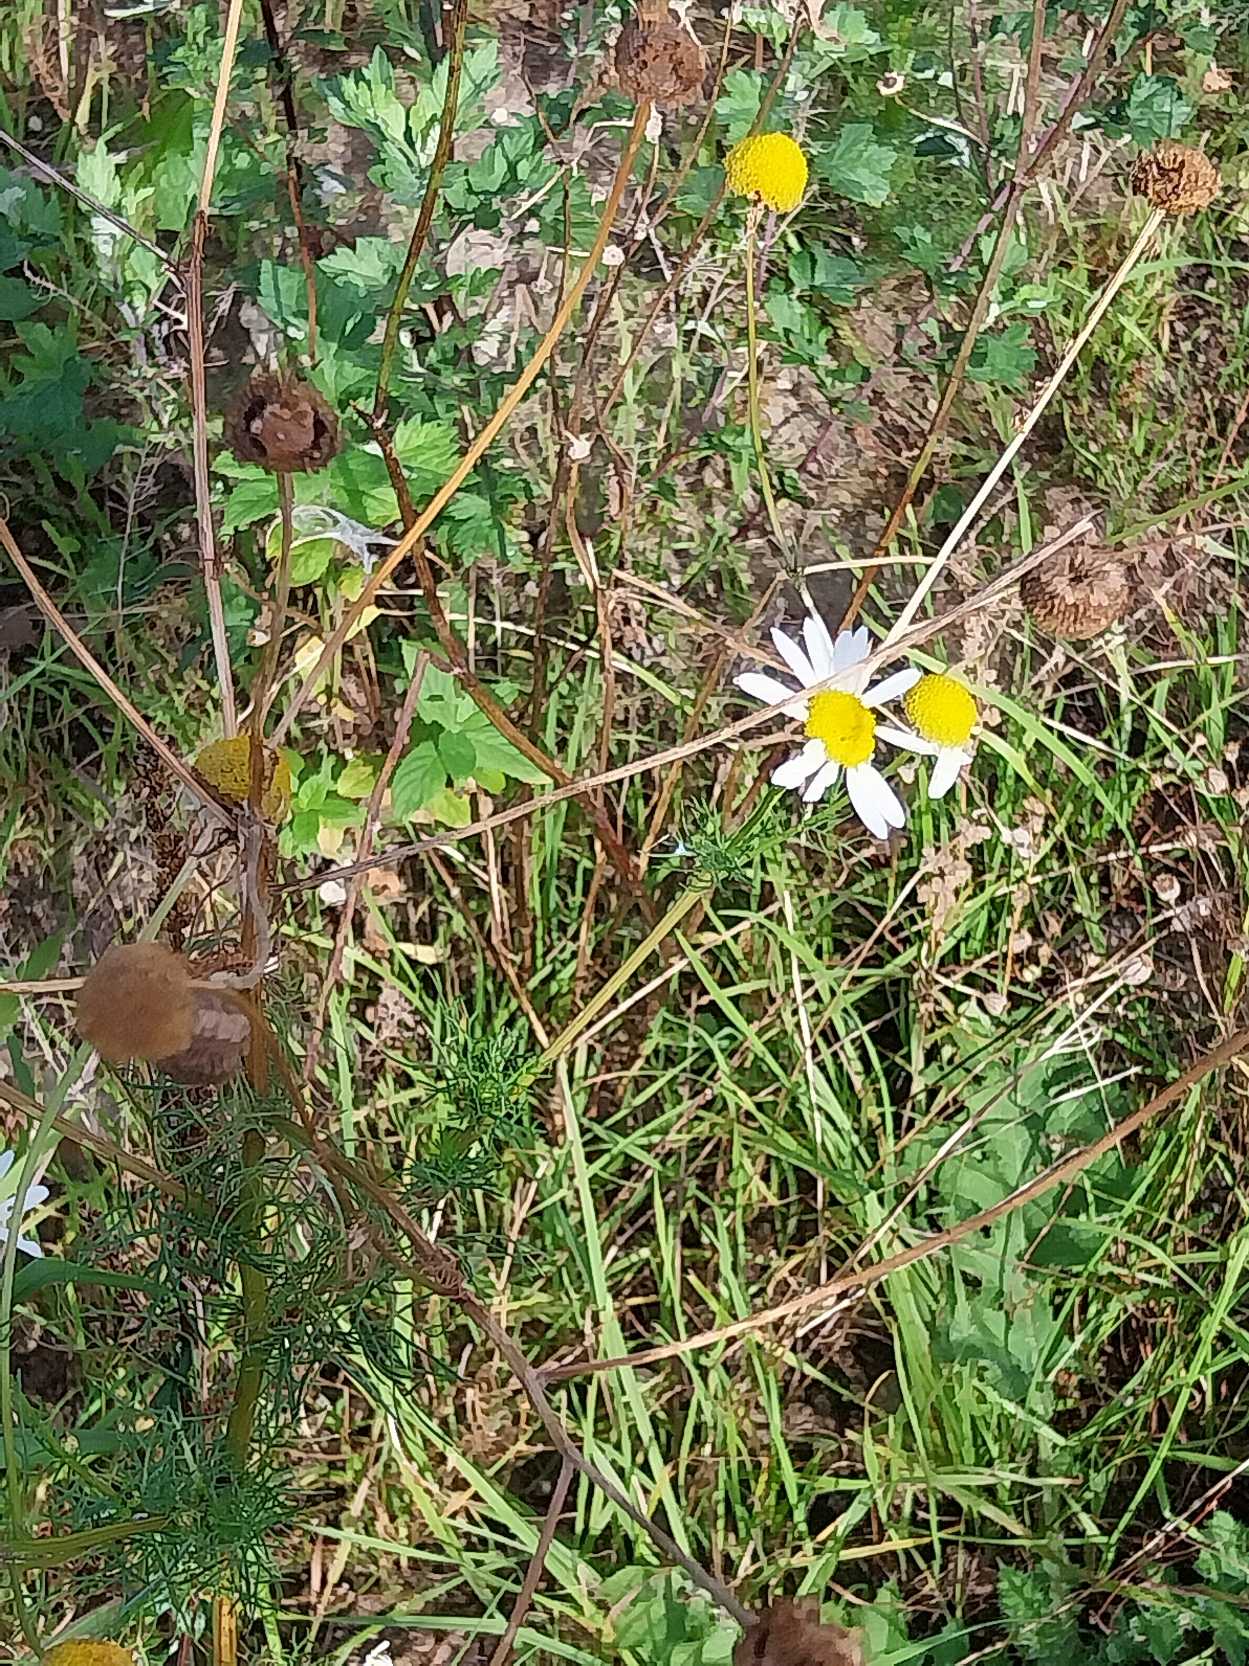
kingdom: Plantae
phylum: Tracheophyta
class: Magnoliopsida
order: Asterales
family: Asteraceae
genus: Tripleurospermum
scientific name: Tripleurospermum inodorum
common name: Lugtløs kamille
